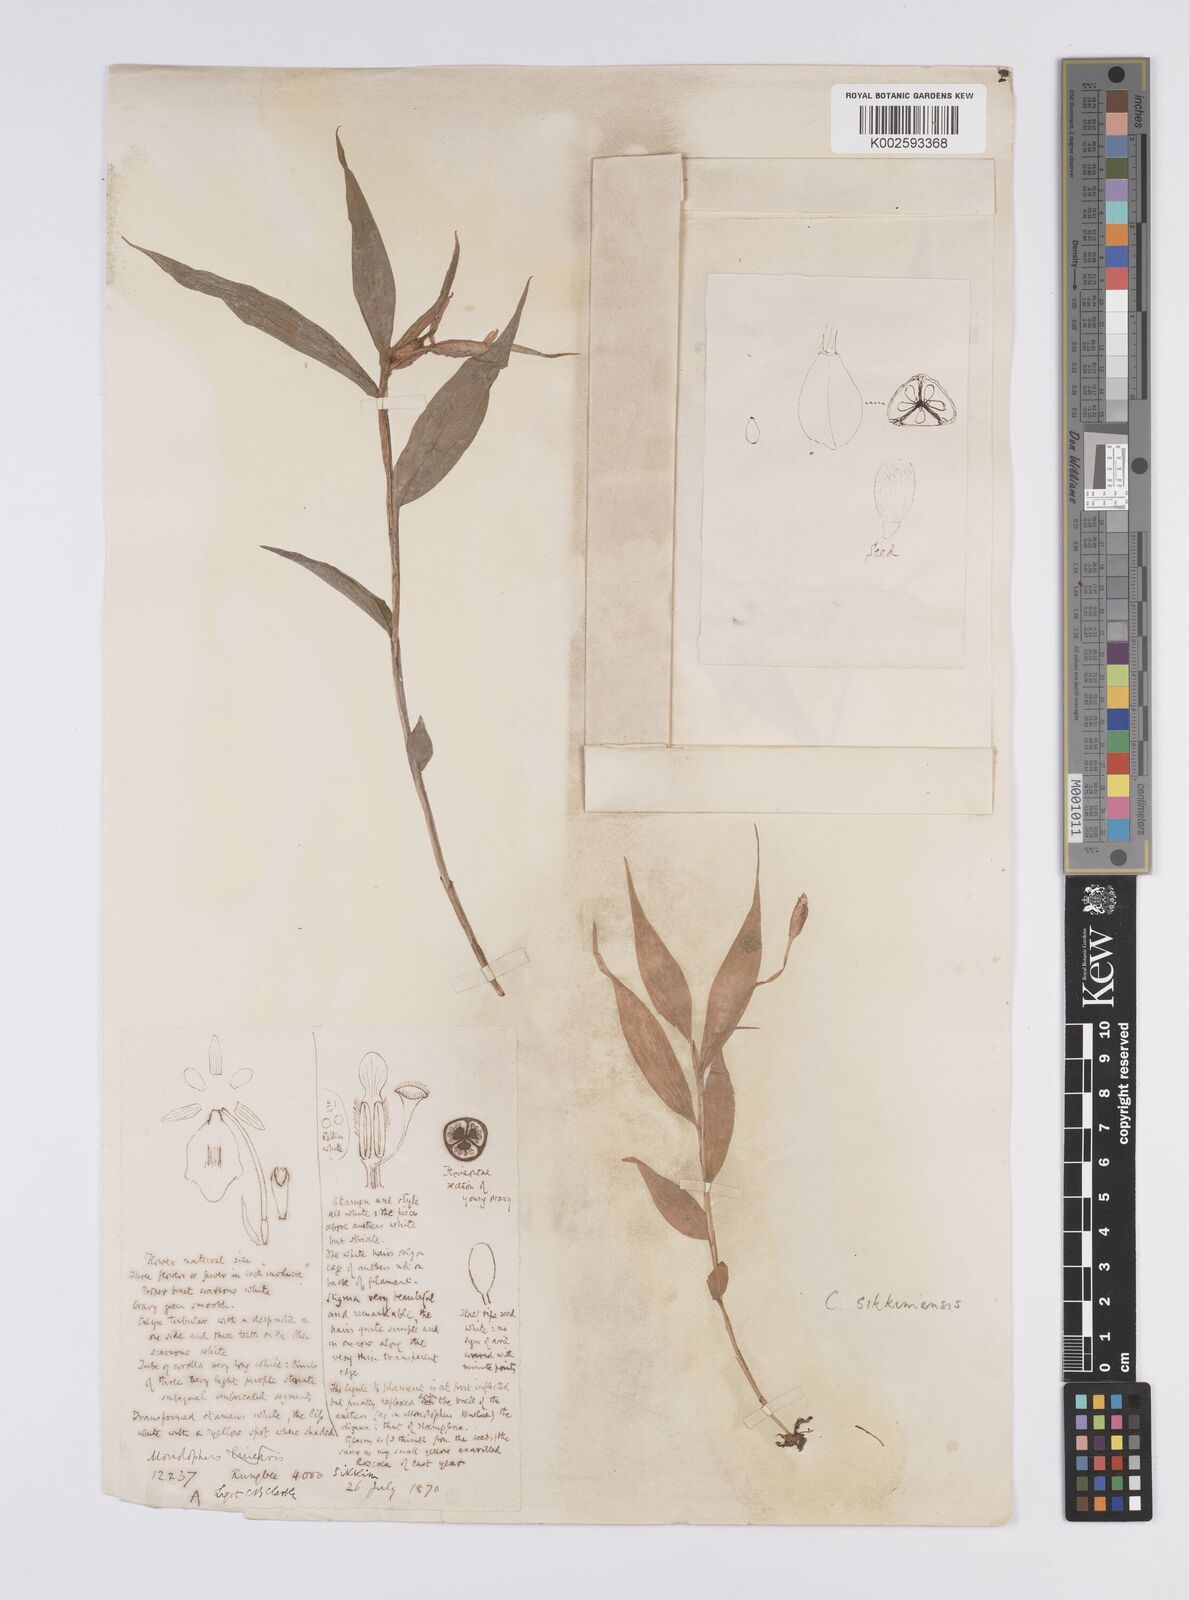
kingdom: Plantae
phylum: Tracheophyta
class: Liliopsida
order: Zingiberales
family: Zingiberaceae
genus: Caulokaempferia
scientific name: Caulokaempferia sikkimensis
